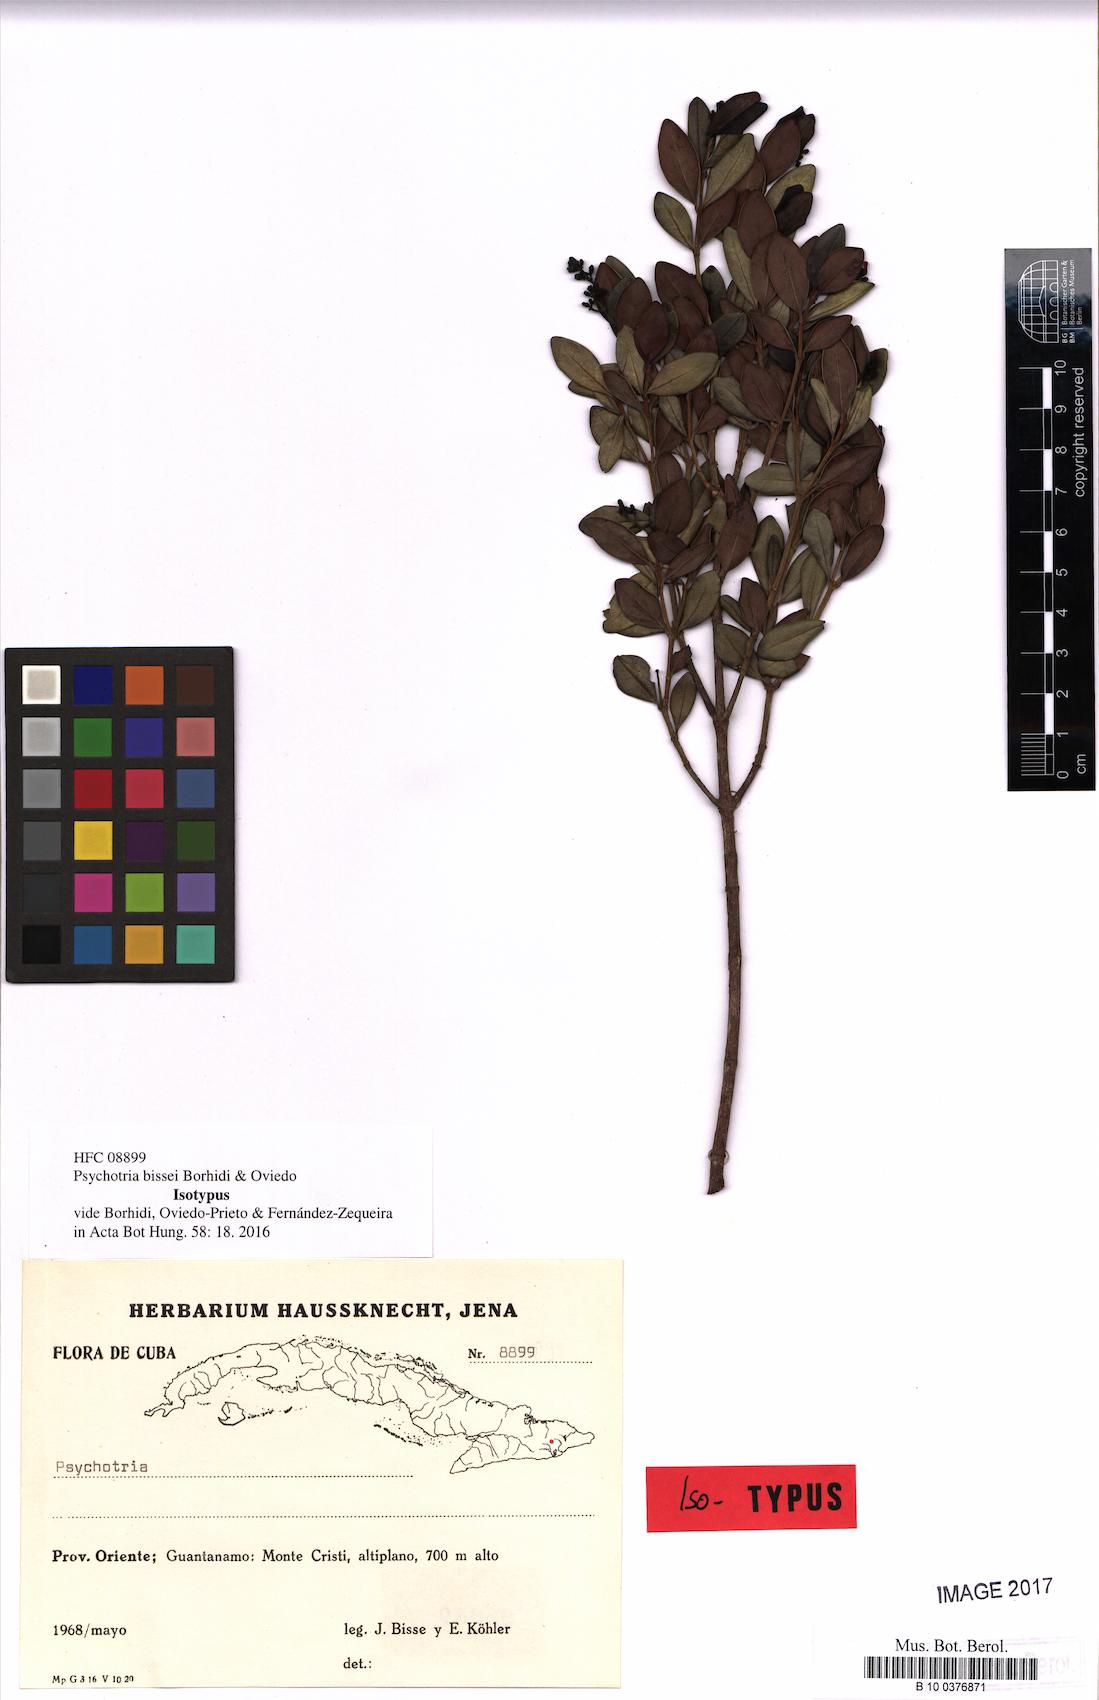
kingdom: Plantae
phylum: Tracheophyta
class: Magnoliopsida
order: Gentianales
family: Rubiaceae
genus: Psychotria
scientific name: Psychotria bissei
